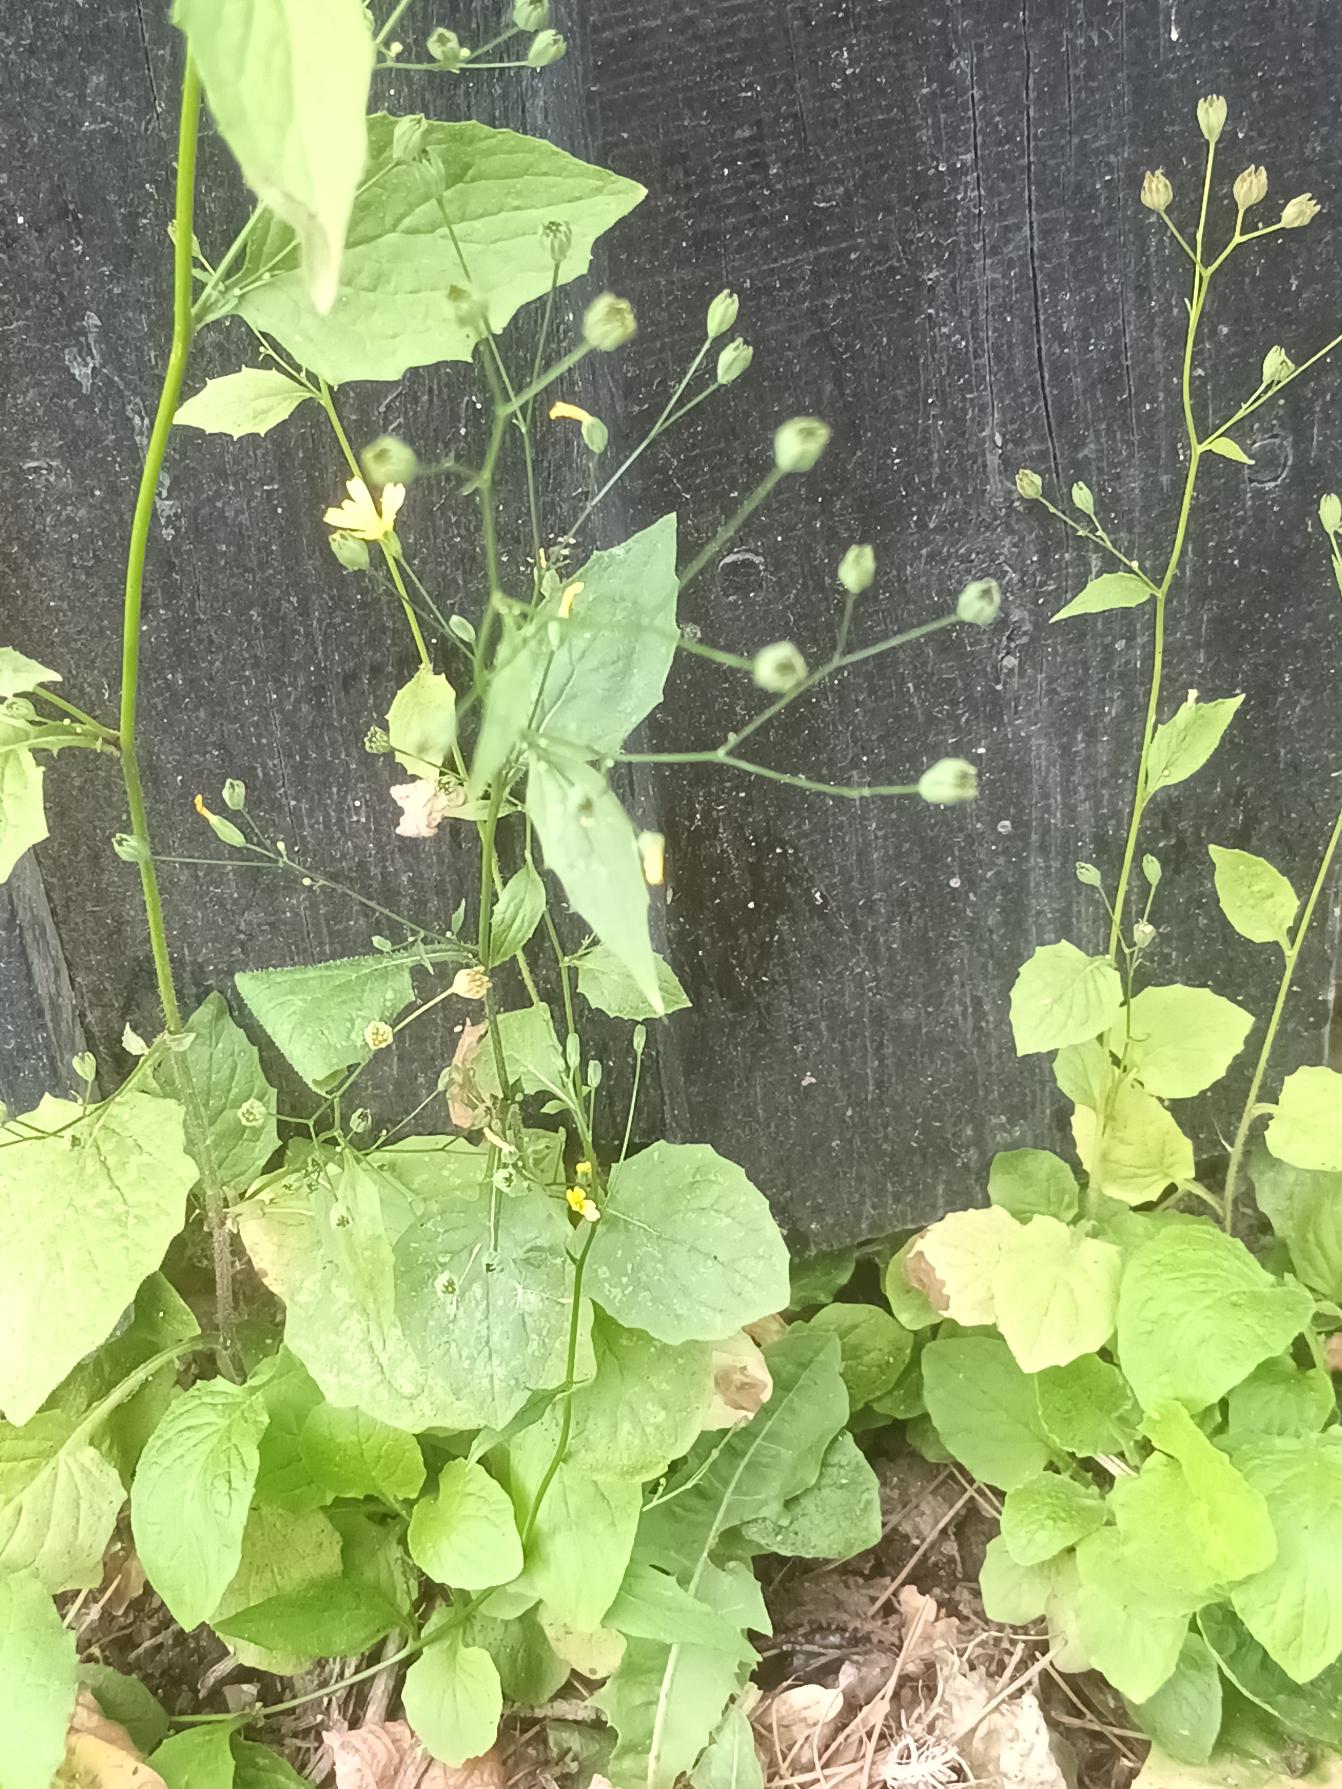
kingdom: Plantae
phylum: Tracheophyta
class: Magnoliopsida
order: Asterales
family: Asteraceae
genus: Lapsana
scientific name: Lapsana communis
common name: Haremad
